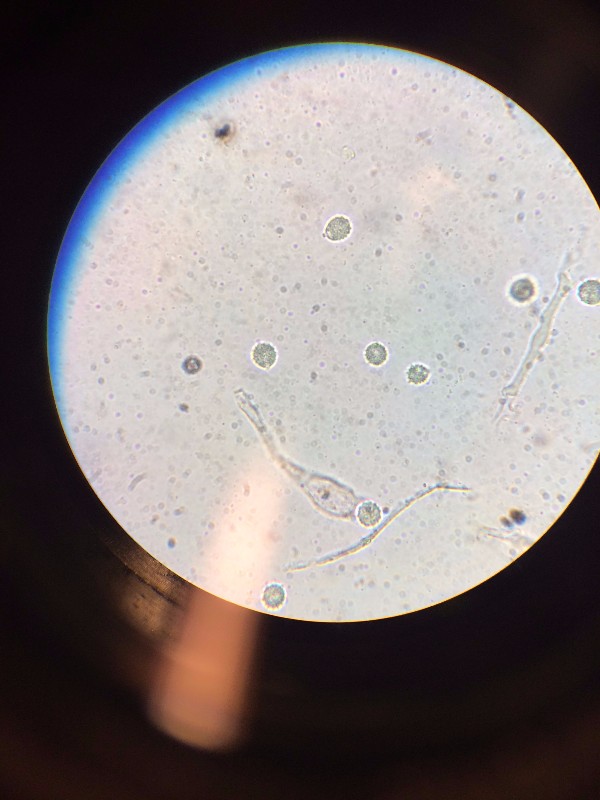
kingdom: Fungi
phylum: Basidiomycota
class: Agaricomycetes
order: Agaricales
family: Hydnangiaceae
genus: Laccaria
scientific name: Laccaria amethystina
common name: violet ametysthat
